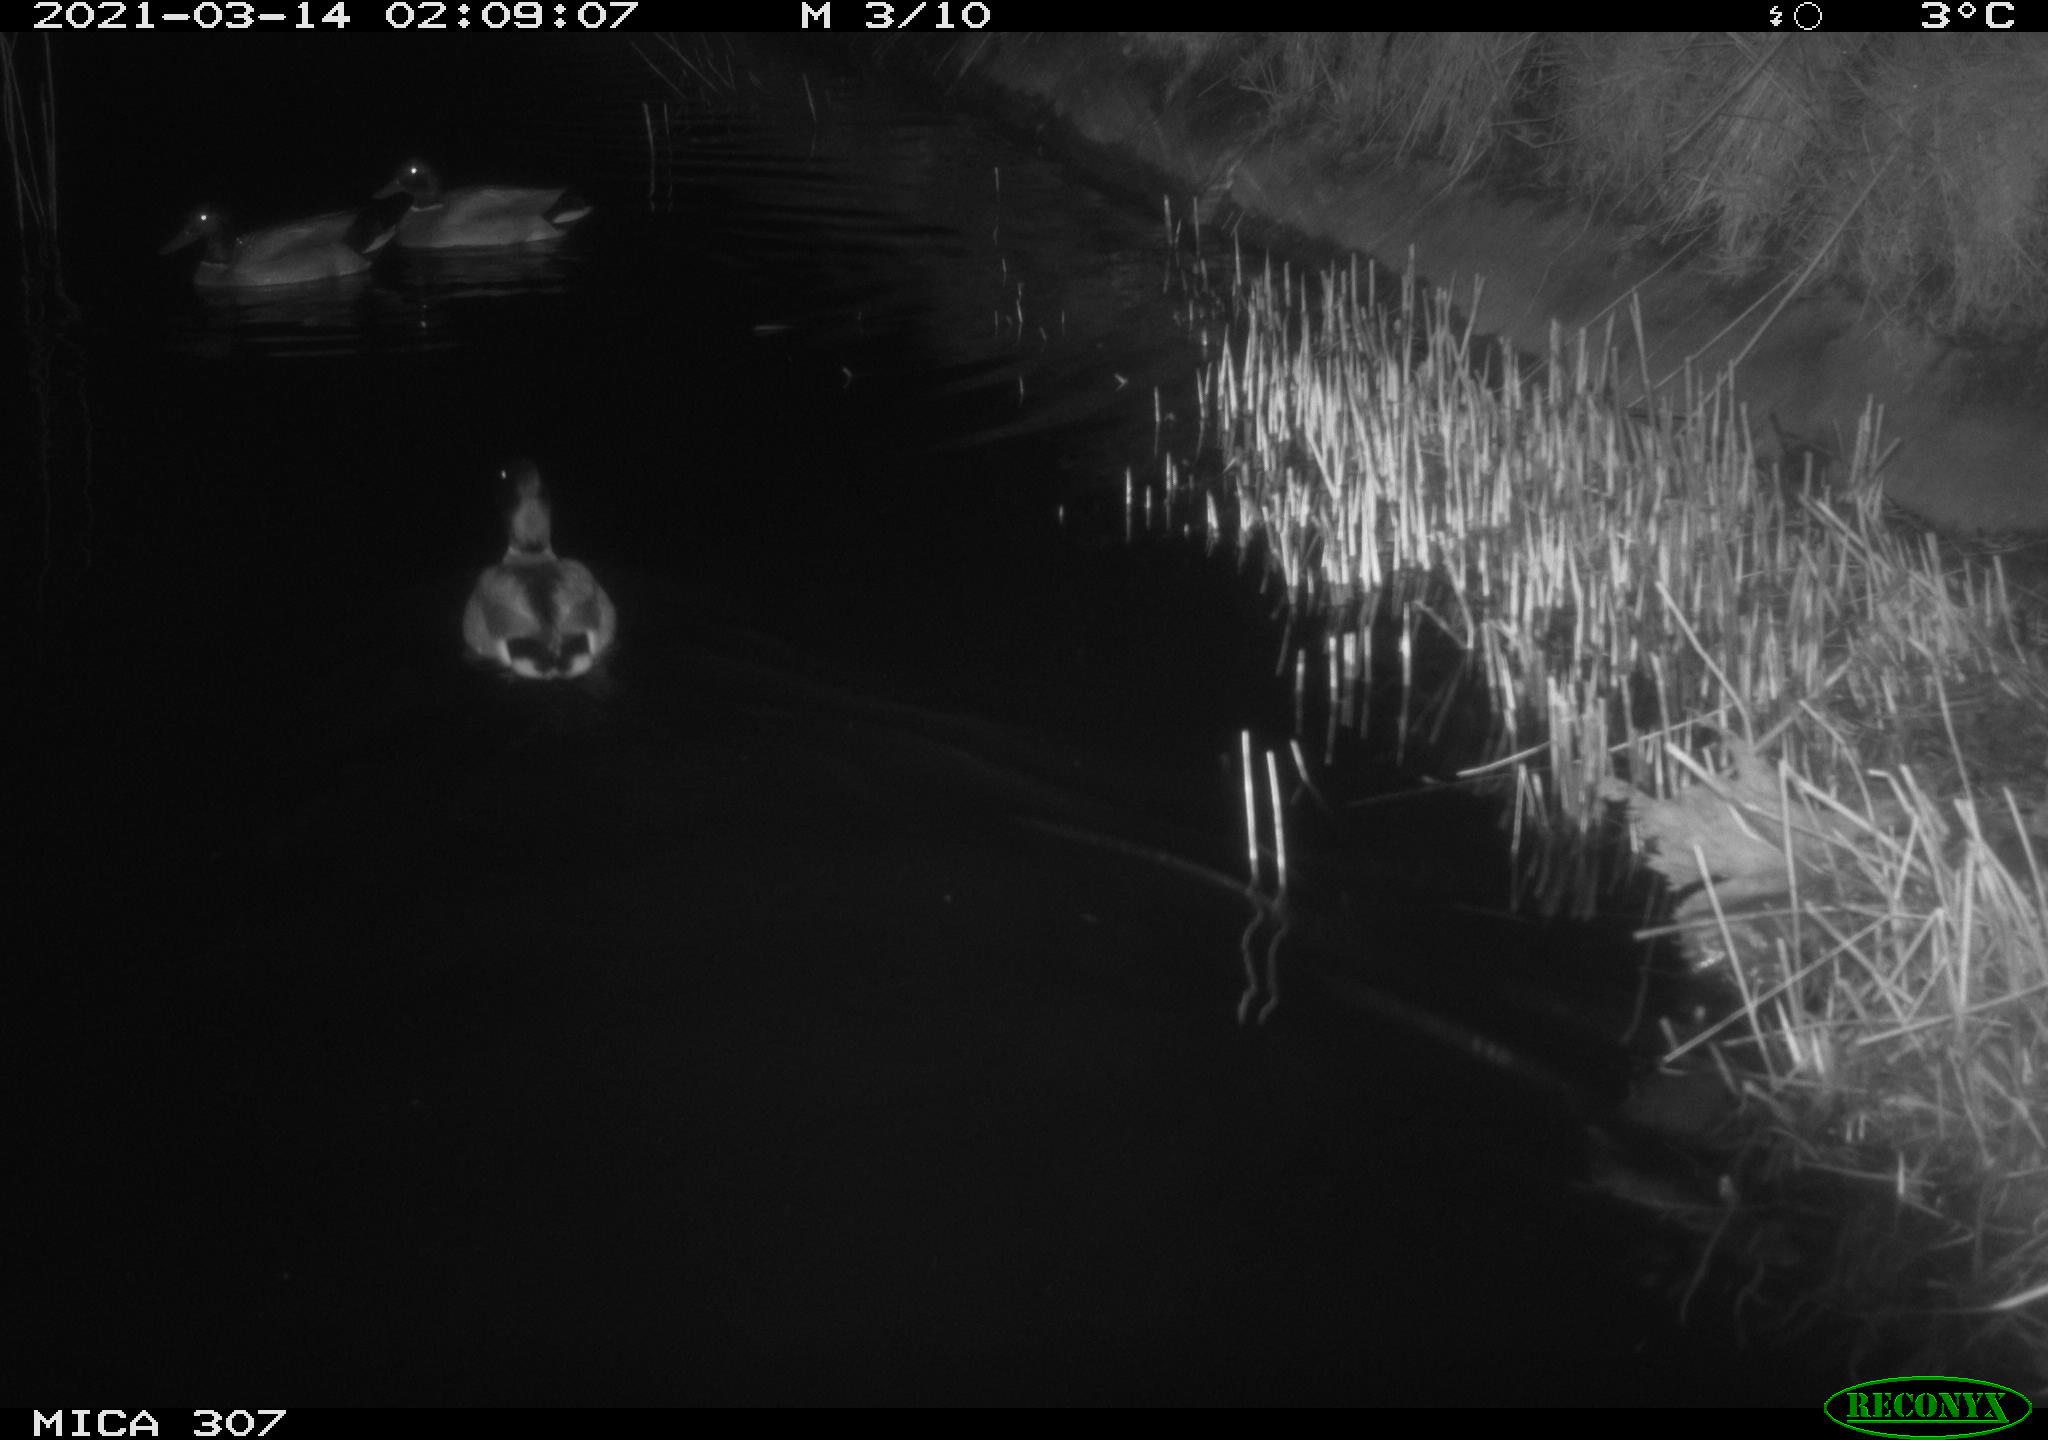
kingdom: Animalia
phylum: Chordata
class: Aves
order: Anseriformes
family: Anatidae
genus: Anas
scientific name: Anas platyrhynchos
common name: Mallard
